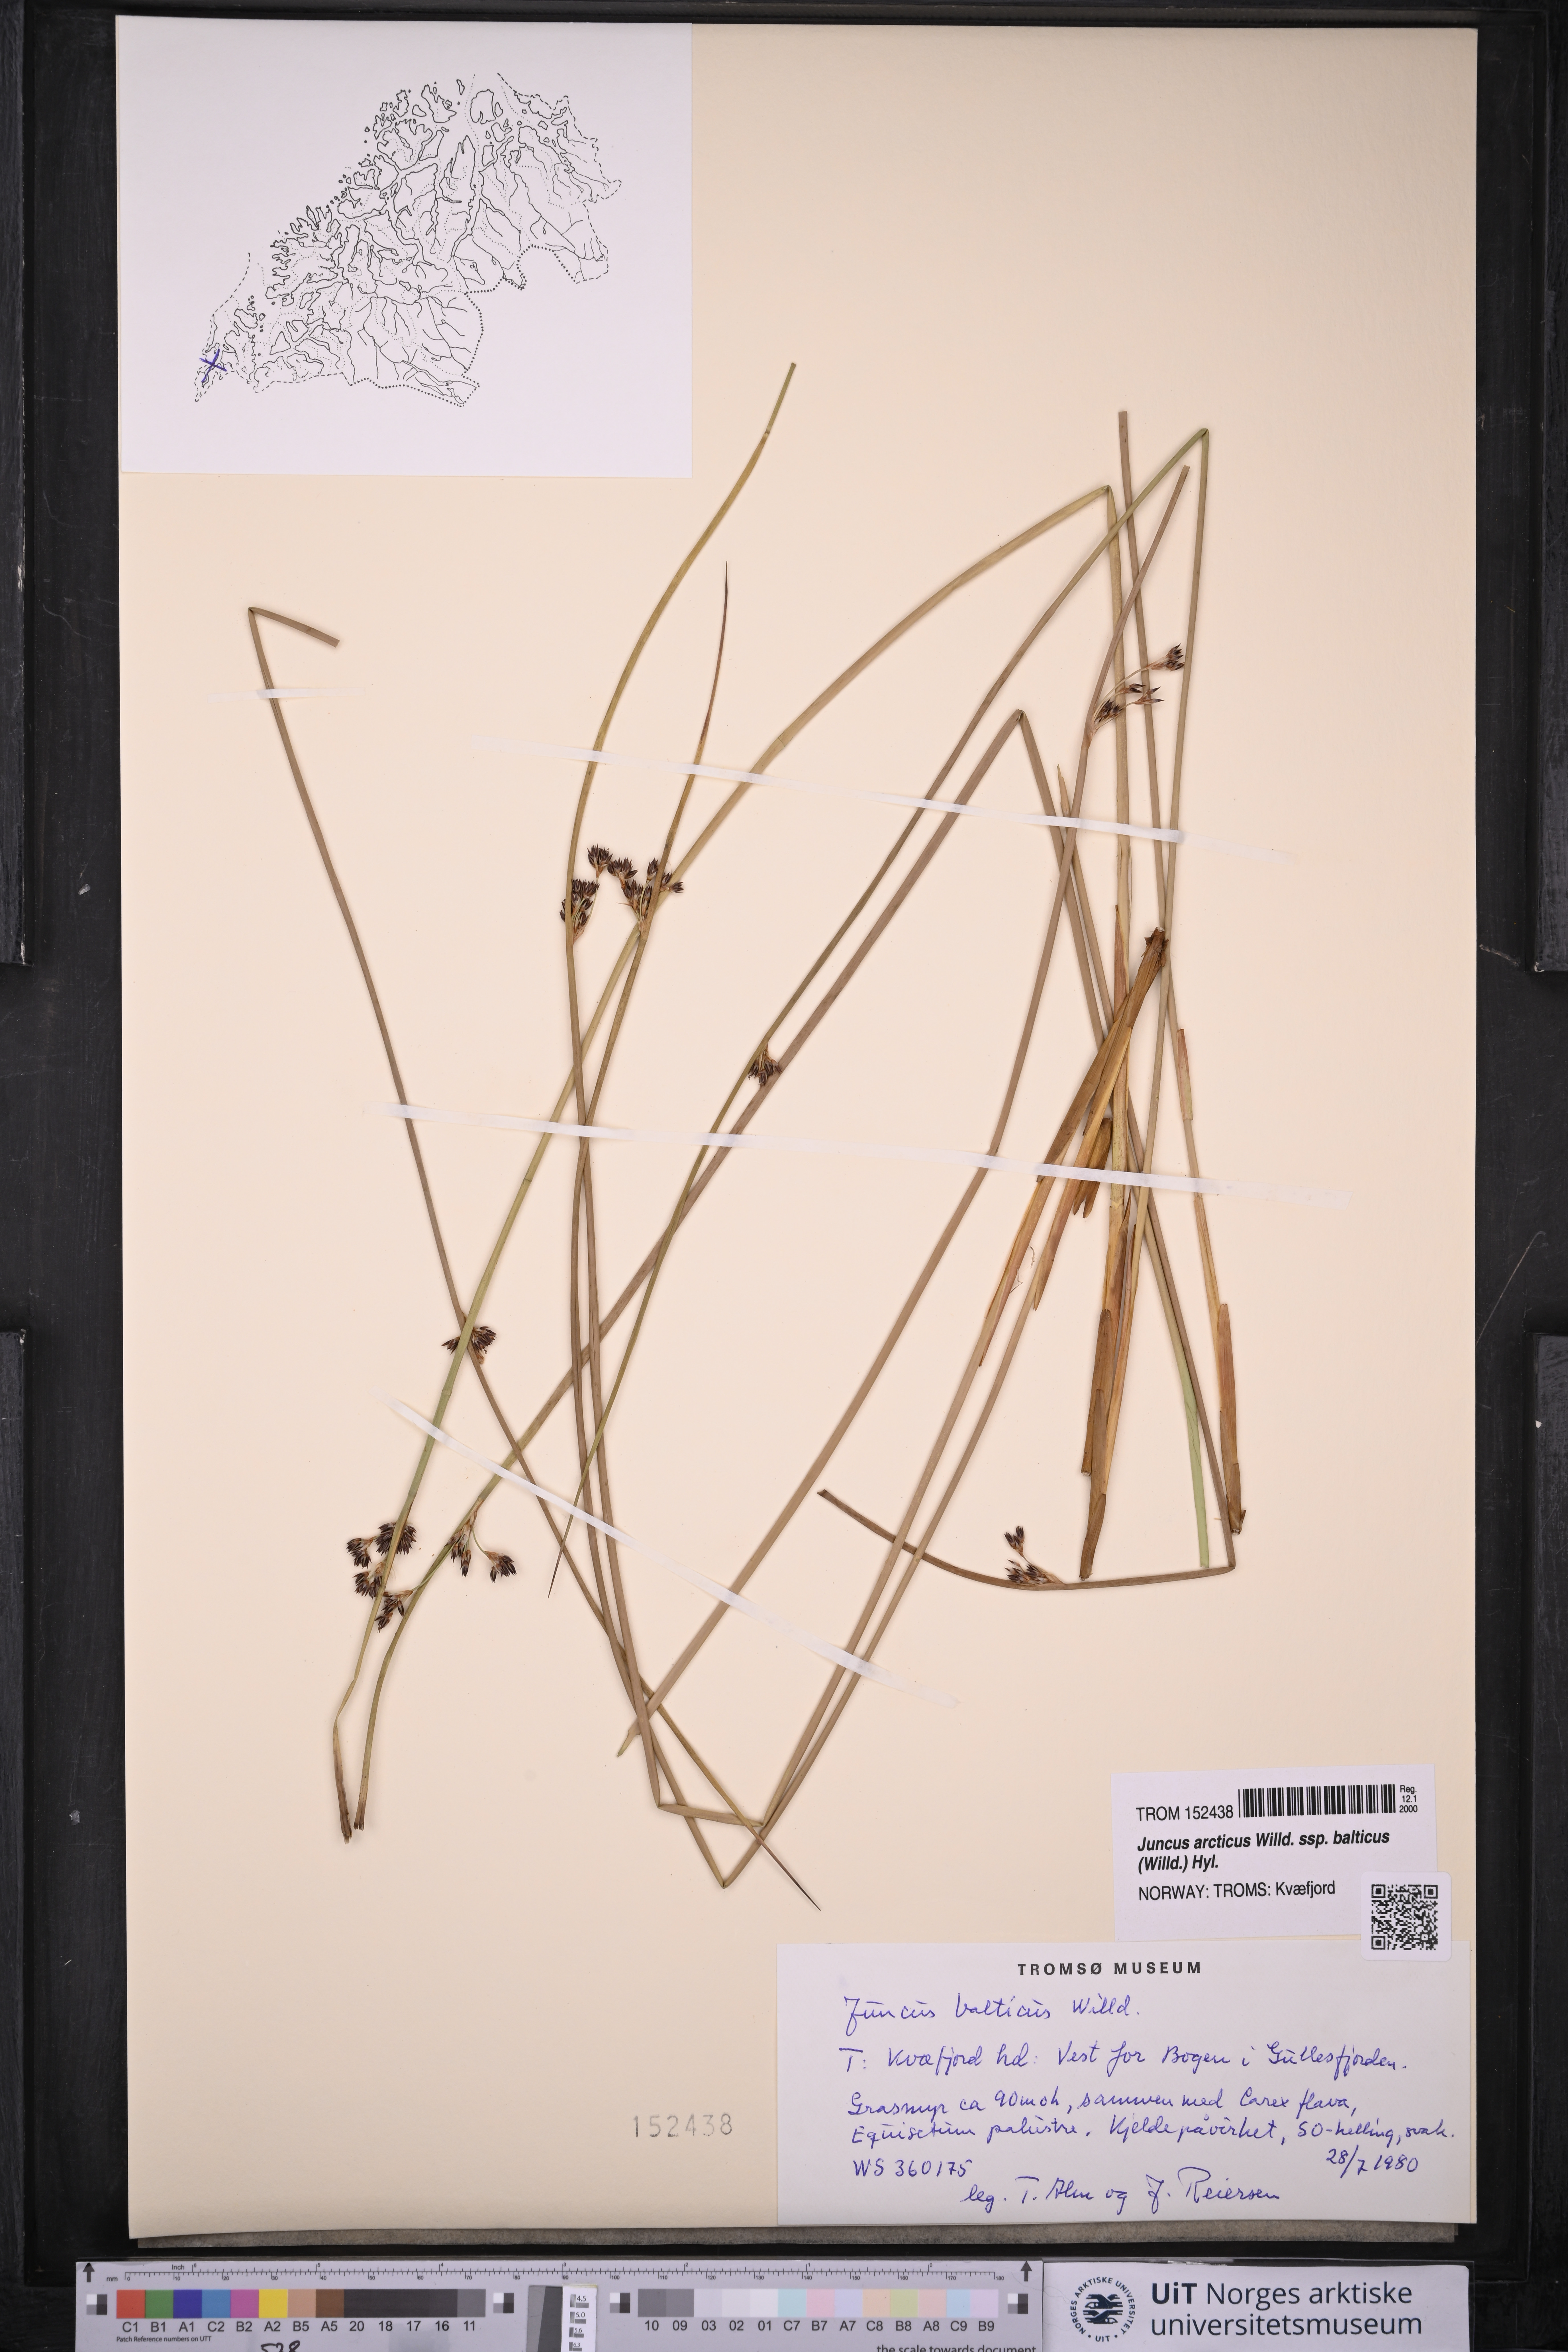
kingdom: Plantae
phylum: Tracheophyta
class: Liliopsida
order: Poales
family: Juncaceae
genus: Juncus
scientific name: Juncus balticus
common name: Baltic rush
